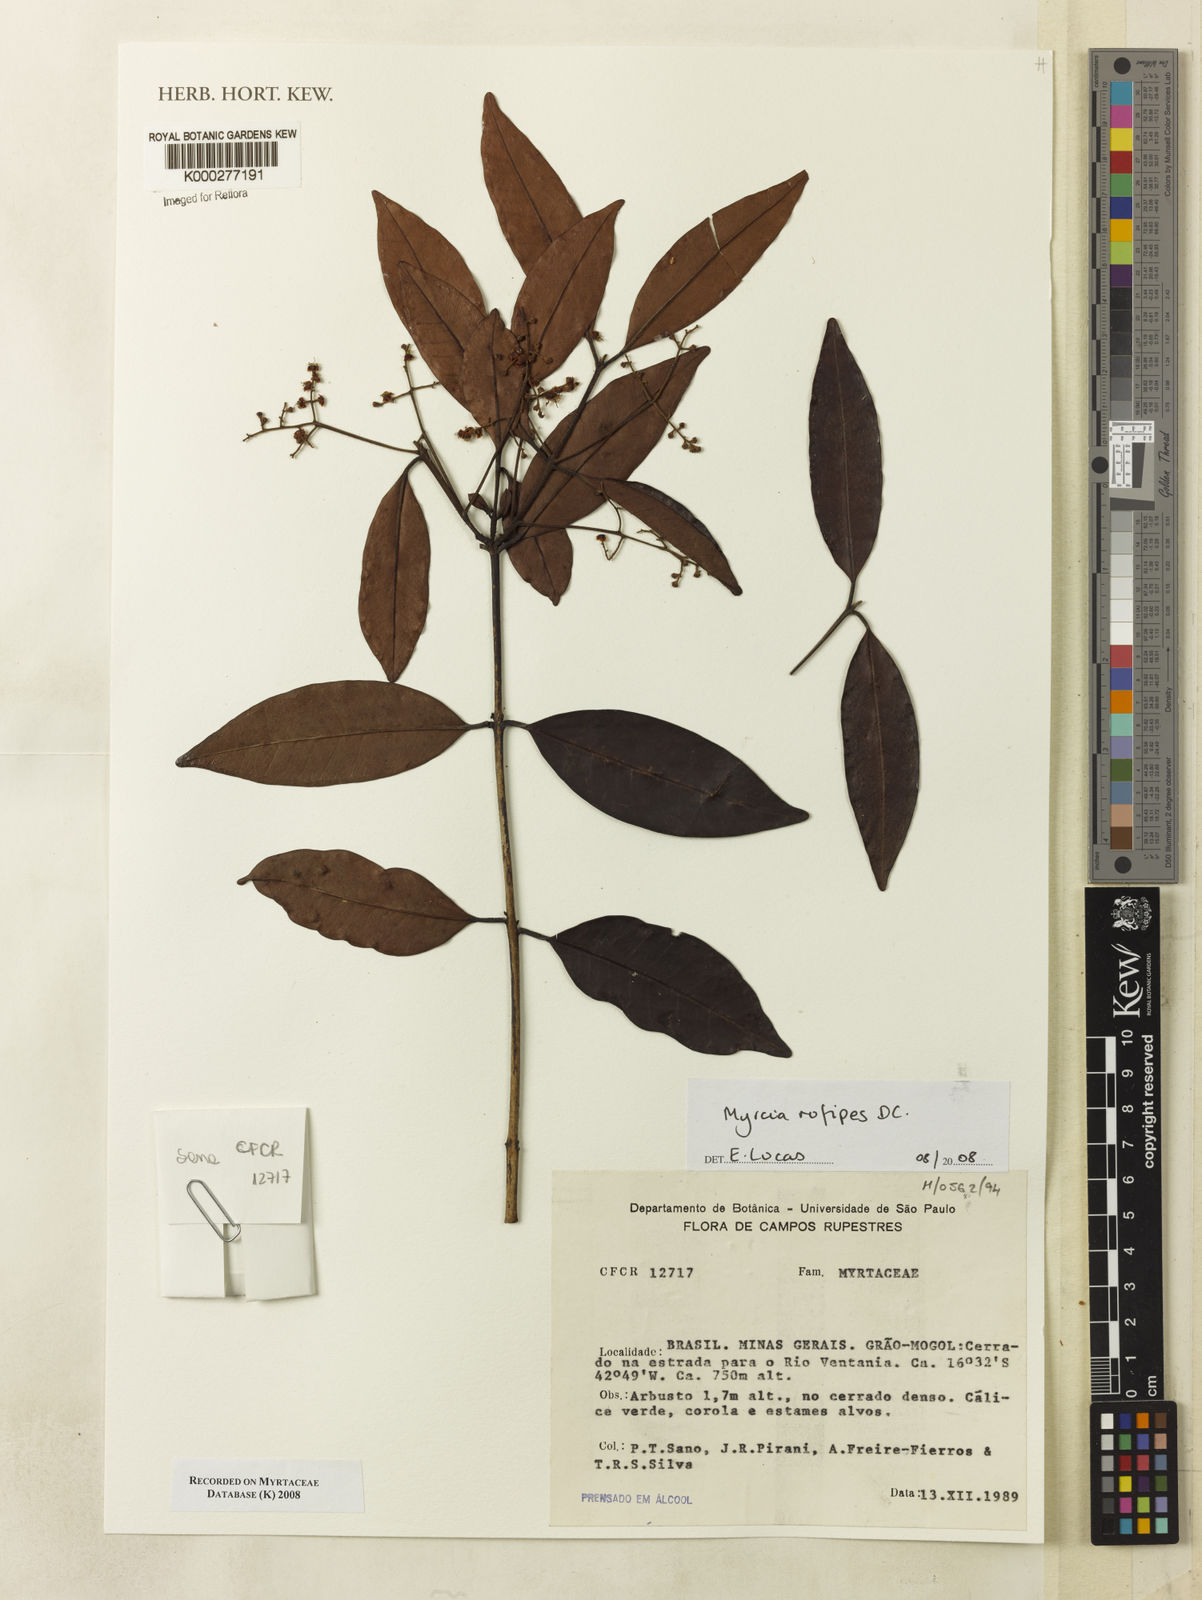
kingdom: Plantae
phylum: Tracheophyta
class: Magnoliopsida
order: Myrtales
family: Myrtaceae
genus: Myrcia
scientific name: Myrcia rufipes
